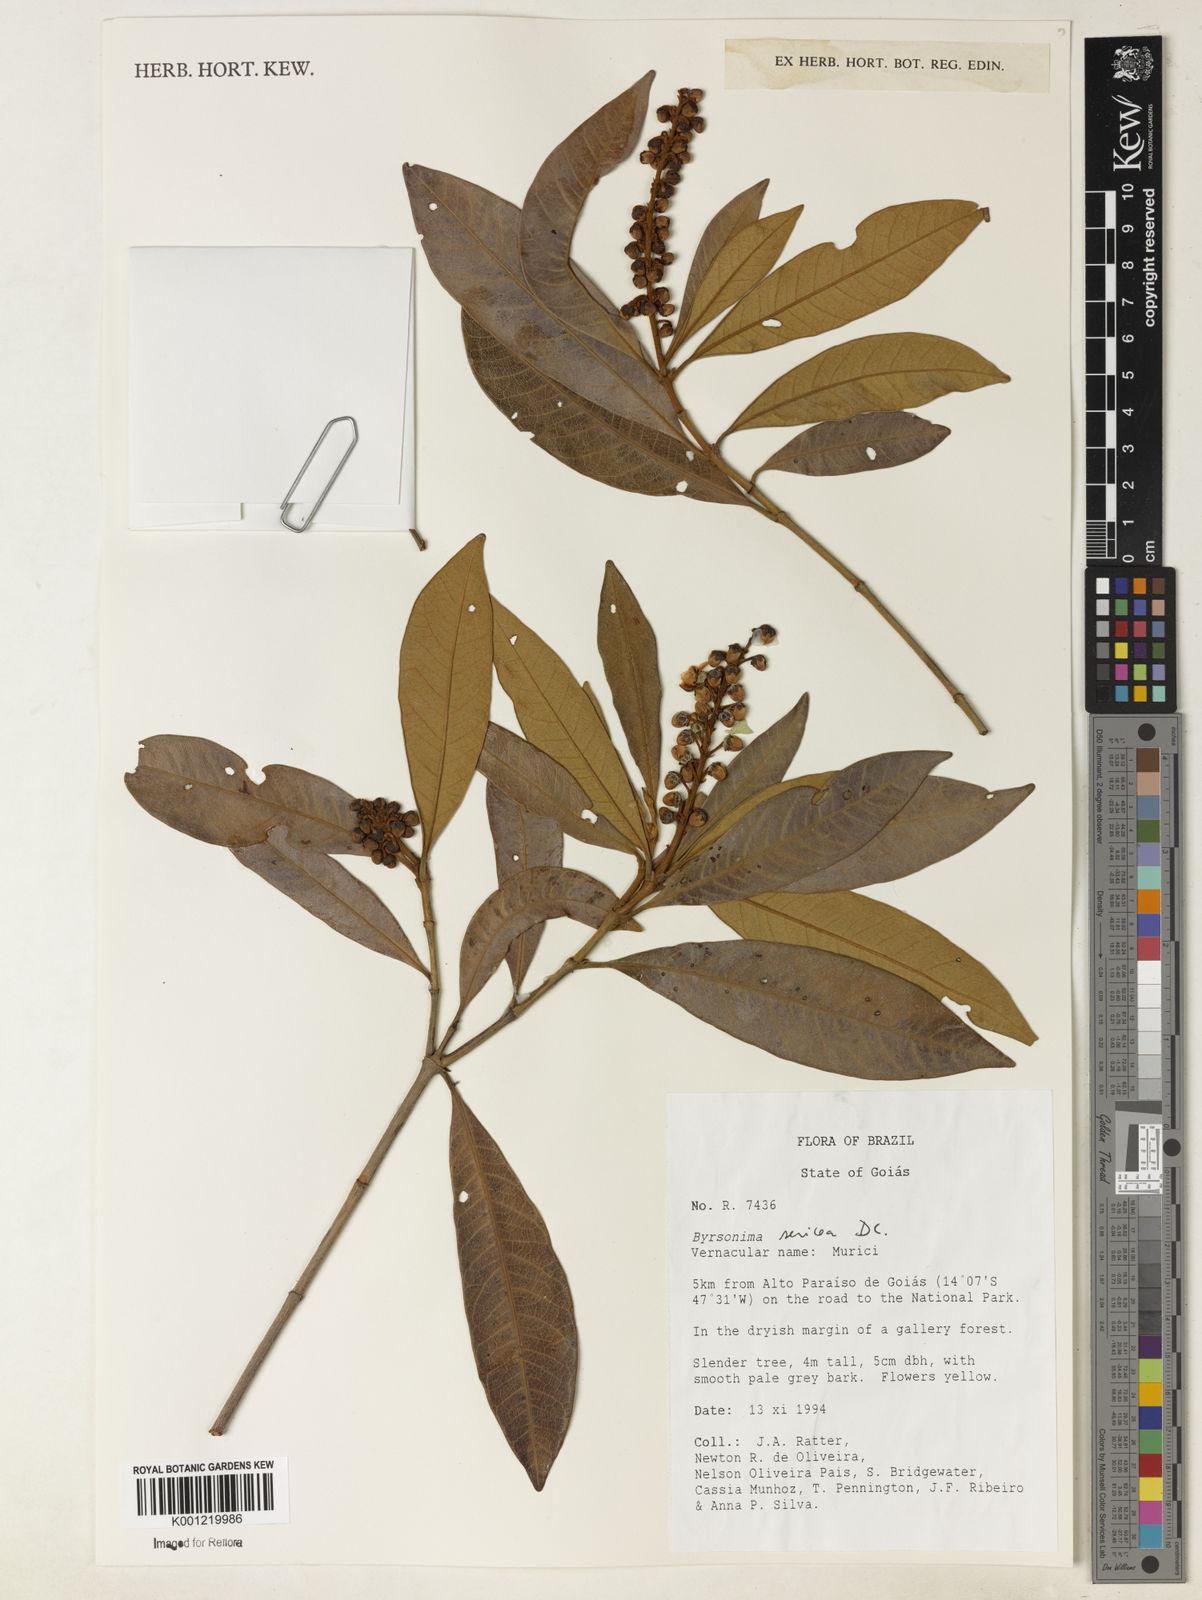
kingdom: Plantae
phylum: Tracheophyta
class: Magnoliopsida
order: Malpighiales
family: Malpighiaceae
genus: Byrsonima
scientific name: Byrsonima sericea
